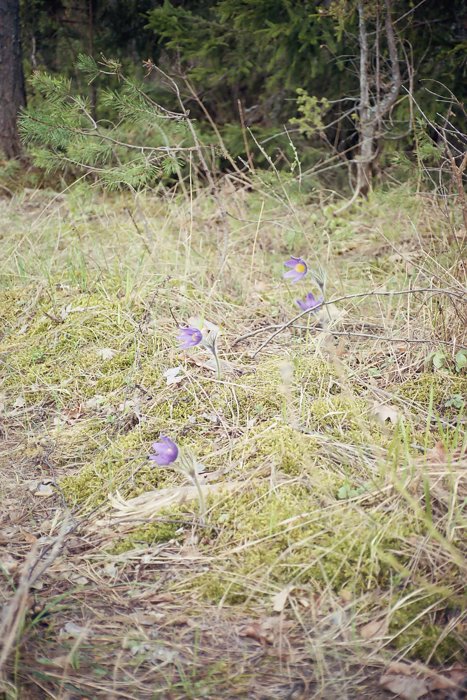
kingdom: Plantae
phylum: Tracheophyta
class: Magnoliopsida
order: Ranunculales
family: Ranunculaceae
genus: Pulsatilla
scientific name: Pulsatilla patens
